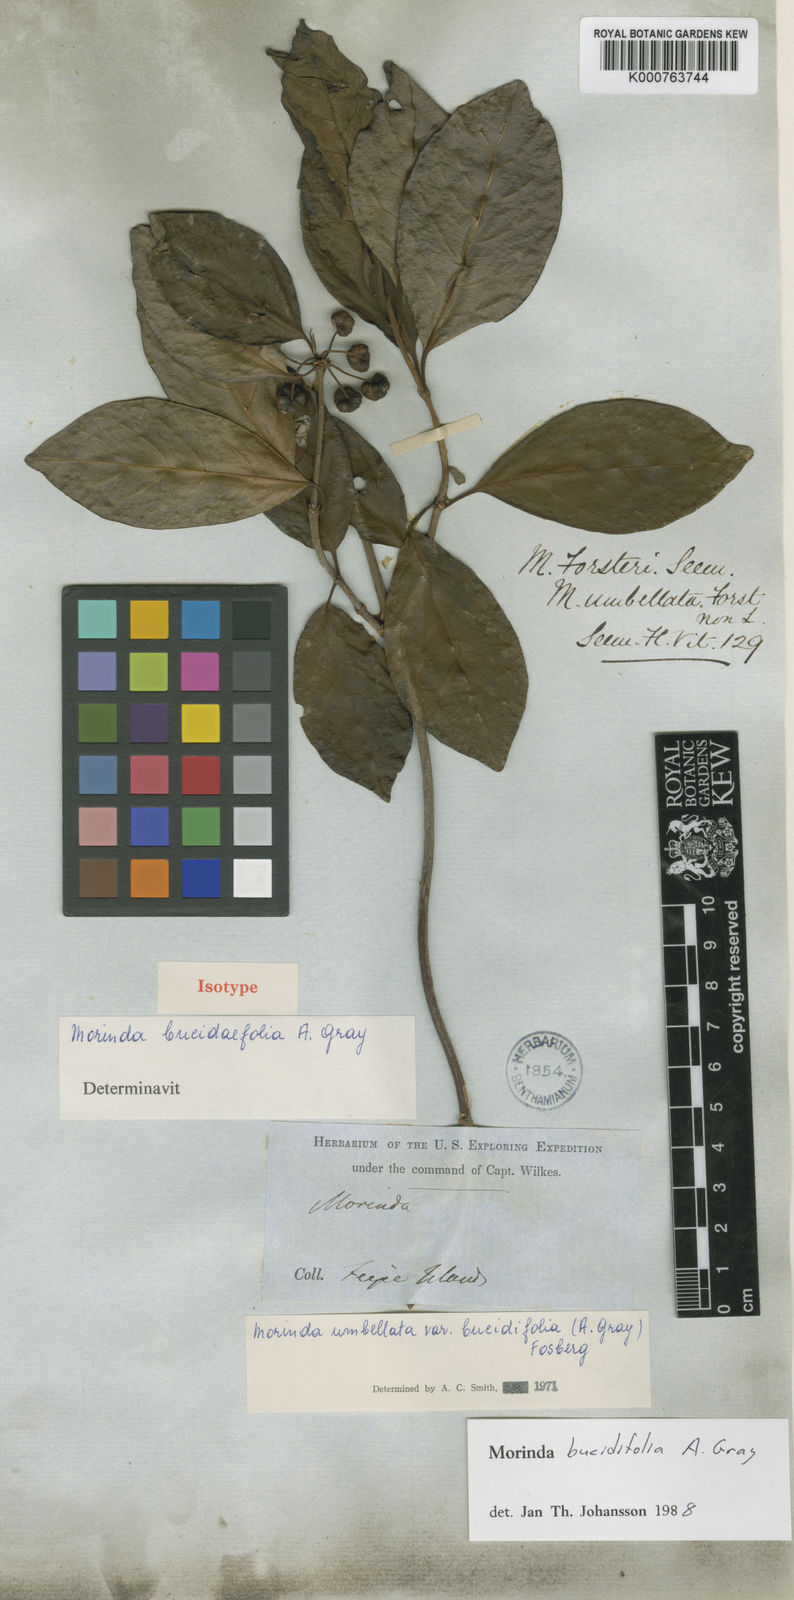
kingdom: Plantae
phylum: Tracheophyta
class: Magnoliopsida
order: Gentianales
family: Rubiaceae
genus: Gynochthodes
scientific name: Gynochthodes umbellata
